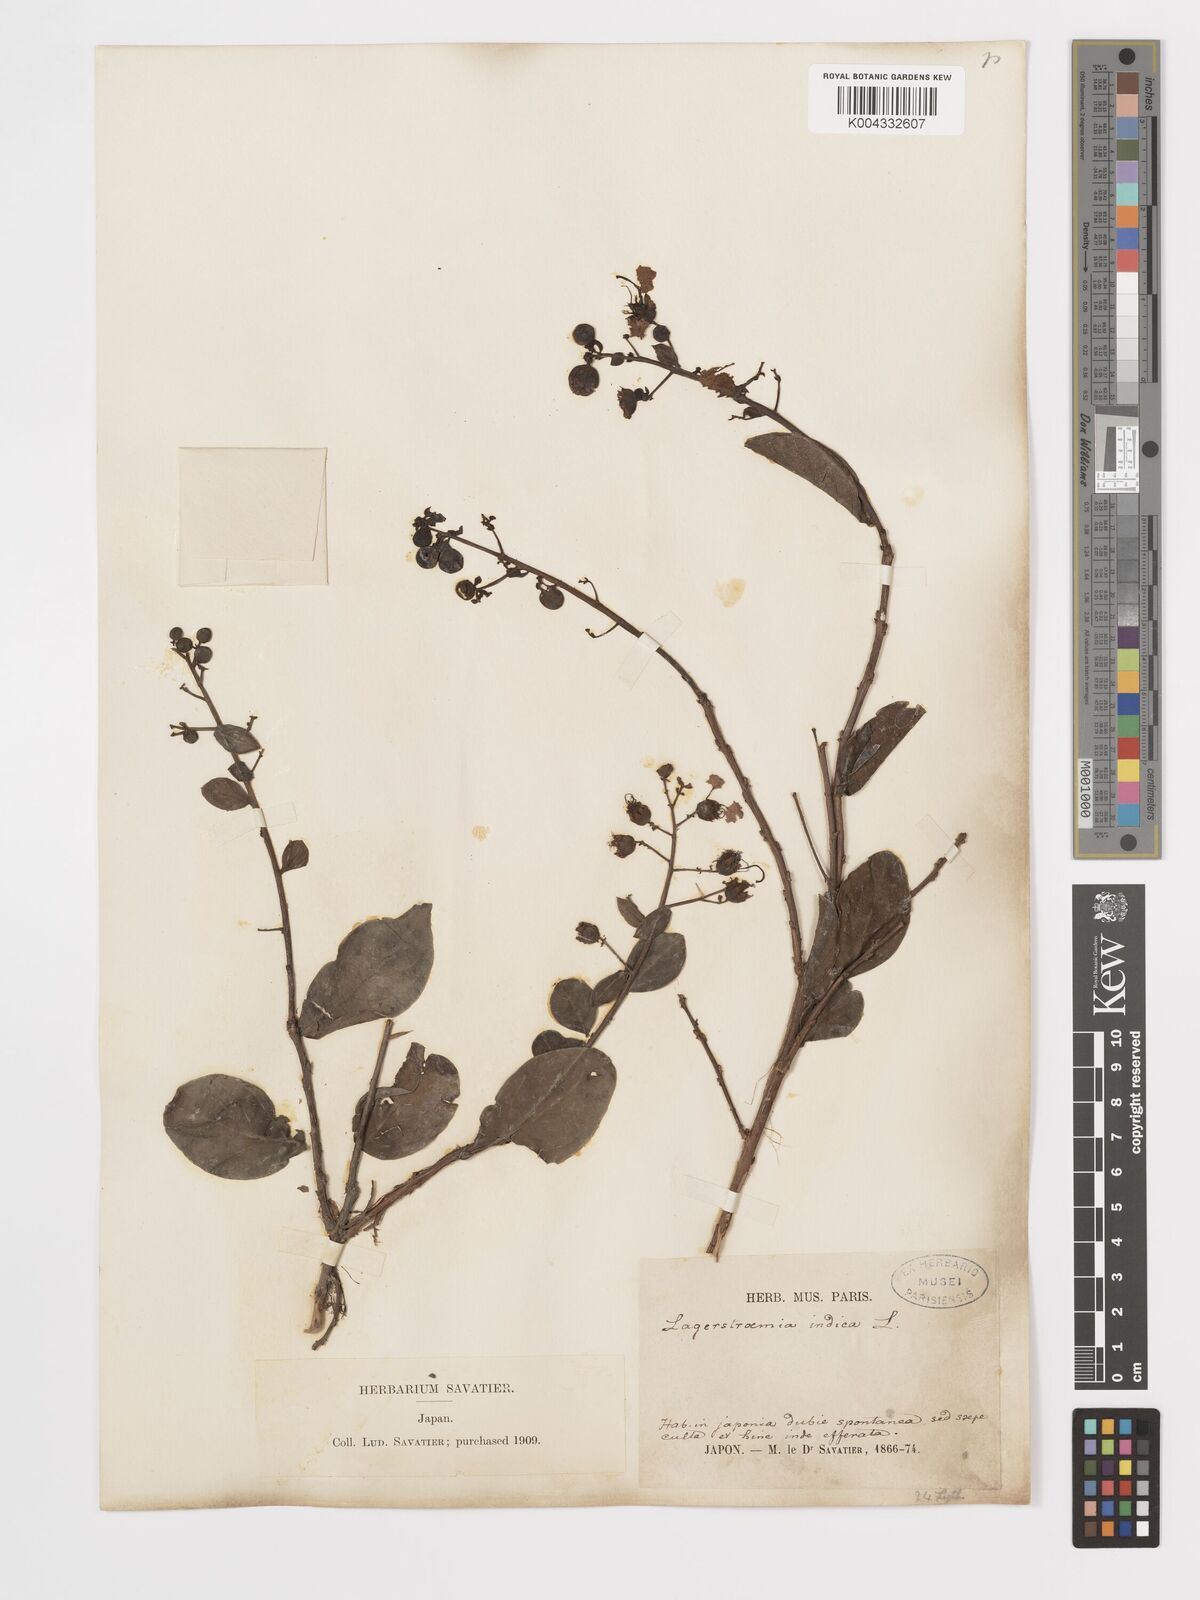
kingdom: Plantae
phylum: Tracheophyta
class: Magnoliopsida
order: Myrtales
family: Lythraceae
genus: Lagerstroemia
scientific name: Lagerstroemia indica
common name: Crape-myrtle
